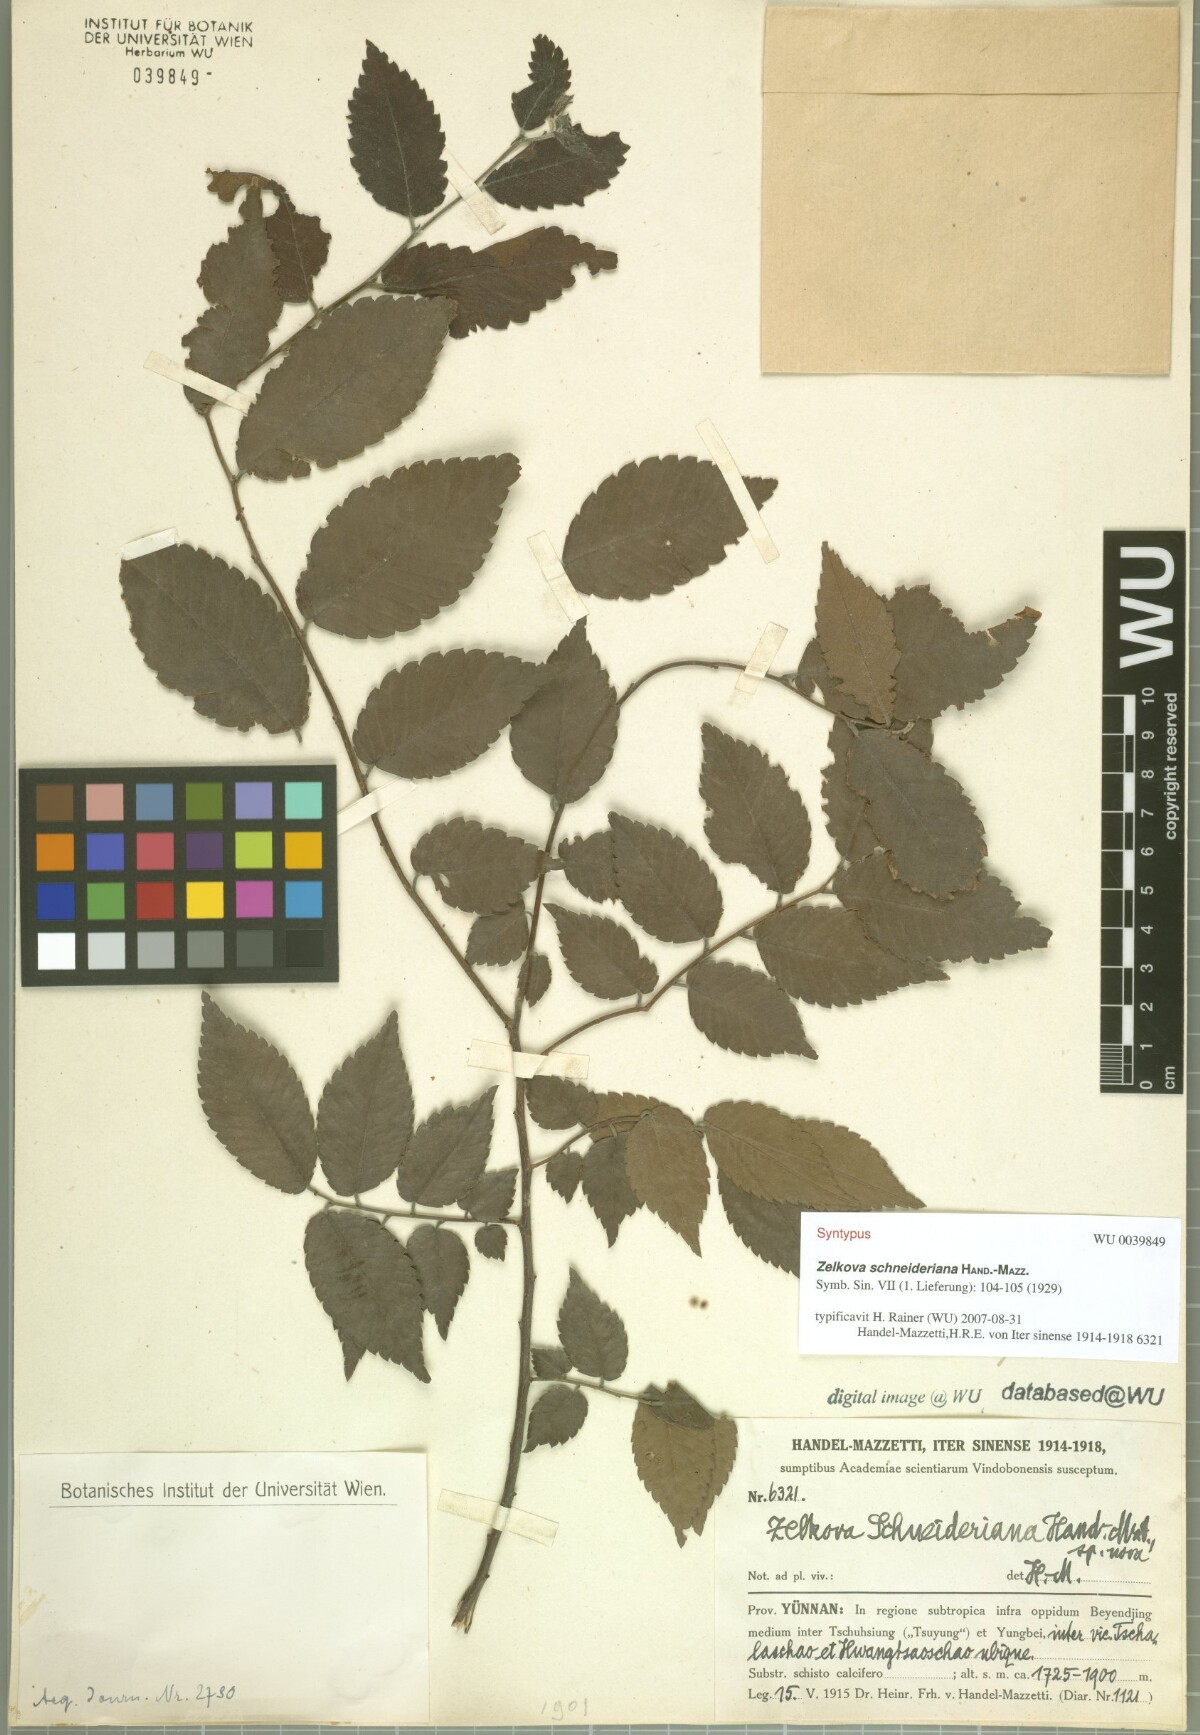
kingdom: Plantae
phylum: Tracheophyta
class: Magnoliopsida
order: Rosales
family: Ulmaceae
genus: Zelkova
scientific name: Zelkova schneideriana
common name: Schneider’s zelkova
